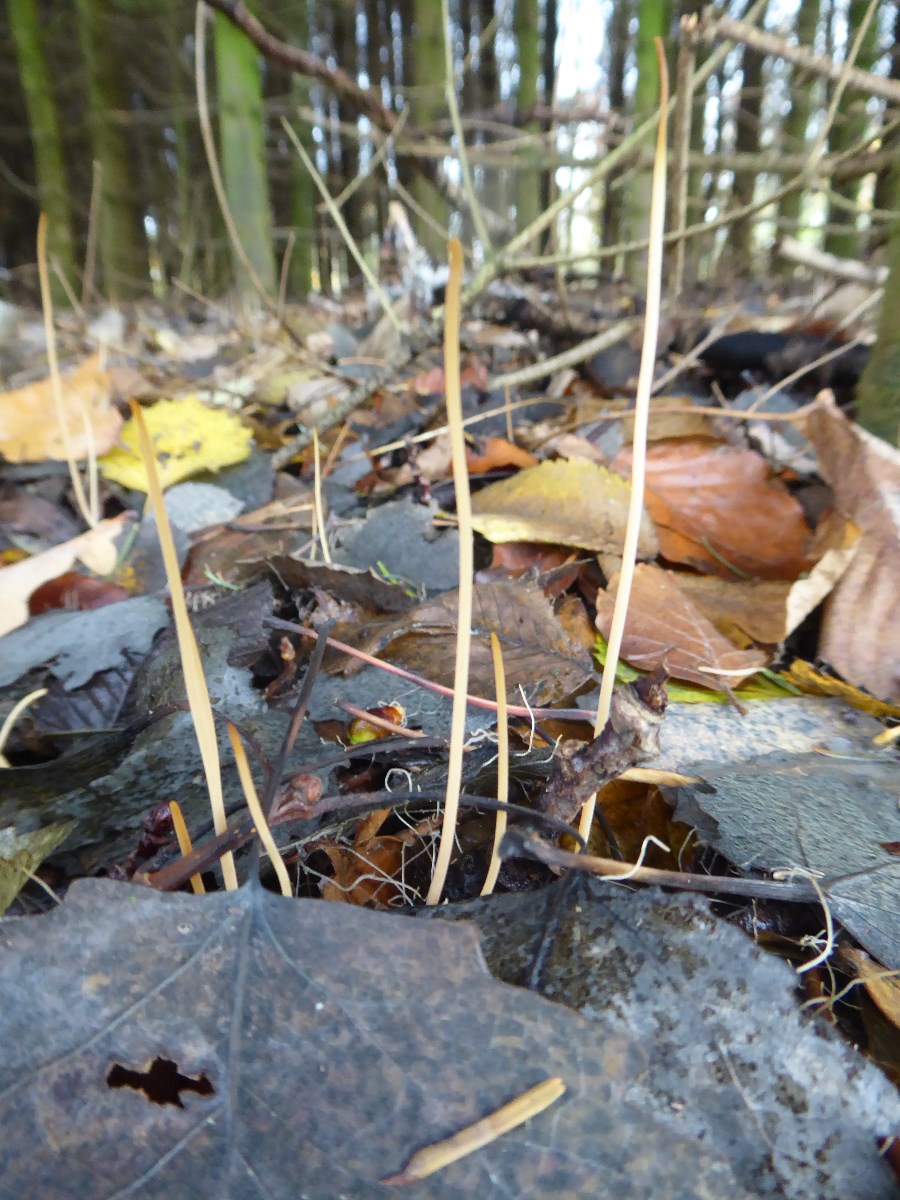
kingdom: Fungi
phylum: Basidiomycota
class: Agaricomycetes
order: Agaricales
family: Typhulaceae
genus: Typhula
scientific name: Typhula juncea
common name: trådagtig rørkølle
